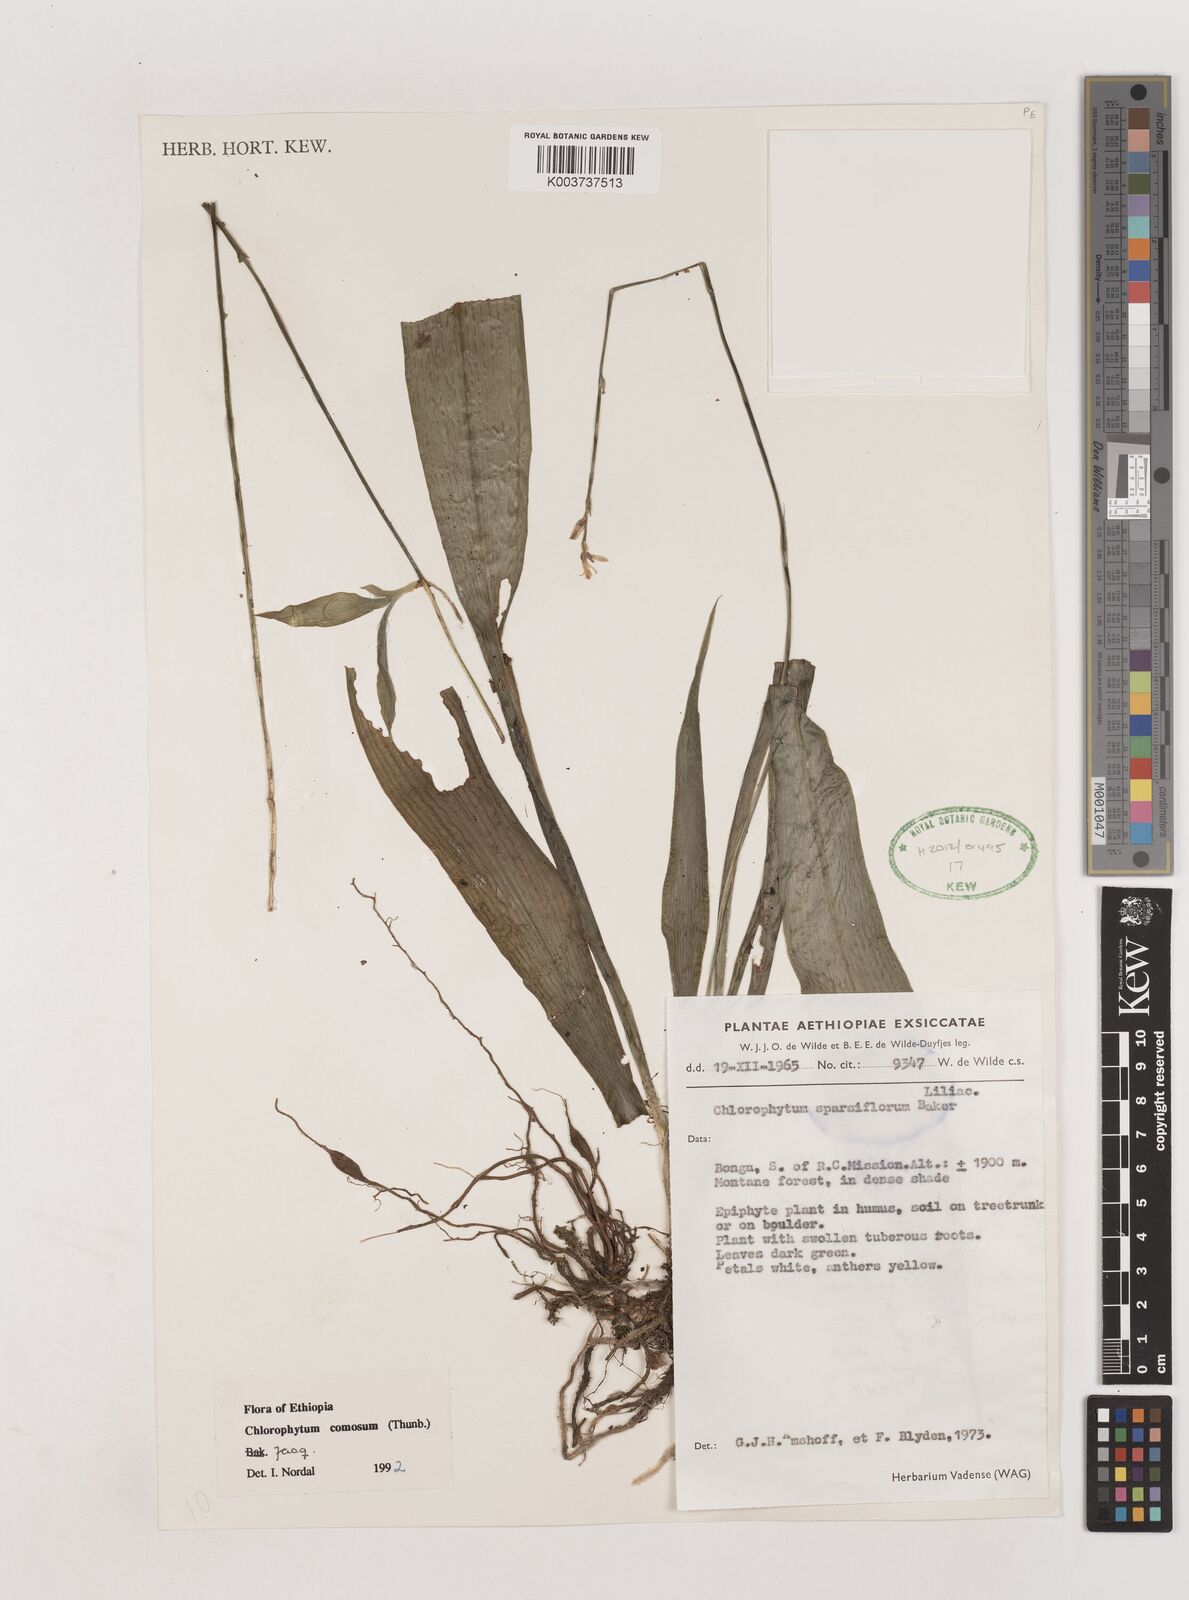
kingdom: Plantae
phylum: Tracheophyta
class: Liliopsida
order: Asparagales
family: Asparagaceae
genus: Chlorophytum
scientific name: Chlorophytum comosum
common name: Spider plant
